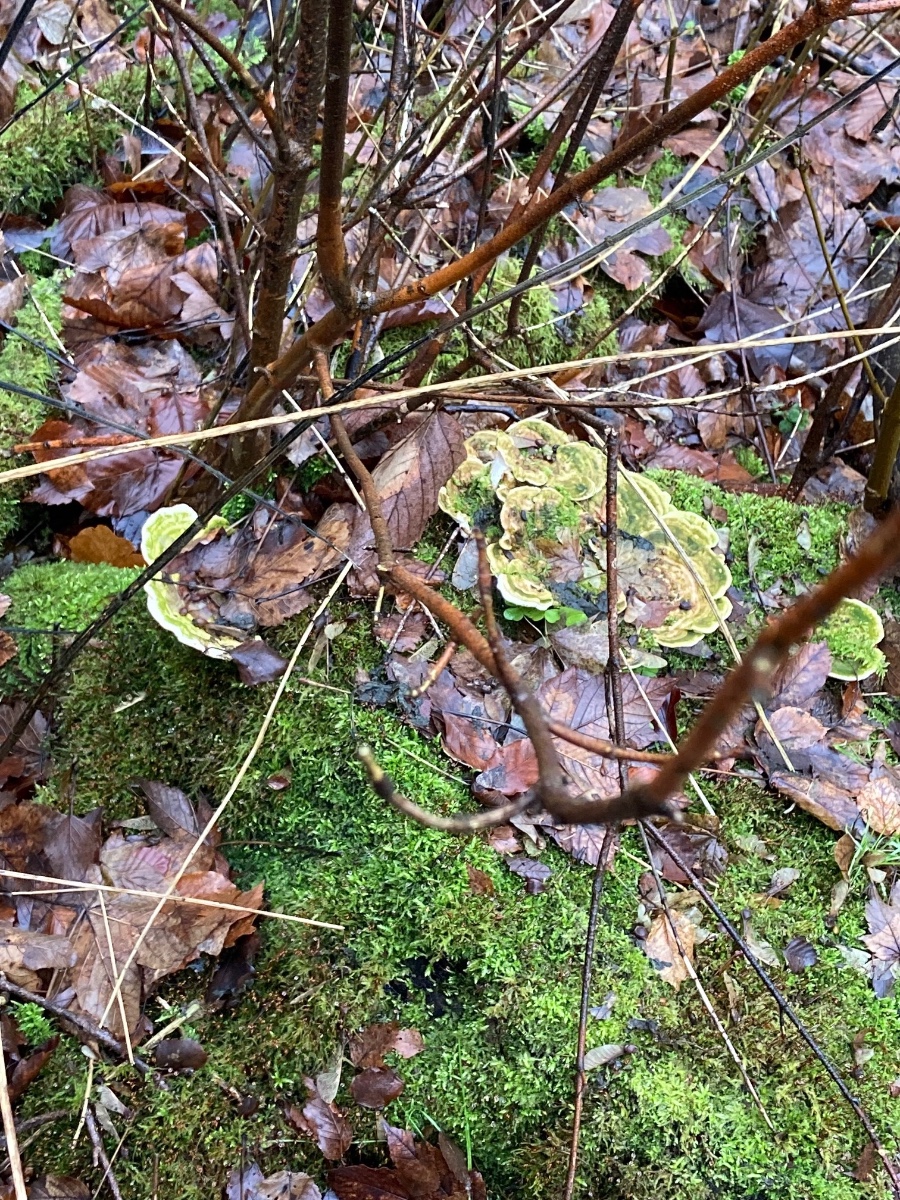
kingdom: Fungi
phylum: Basidiomycota
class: Agaricomycetes
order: Polyporales
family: Polyporaceae
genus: Trametes
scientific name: Trametes gibbosa
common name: puklet læderporesvamp
